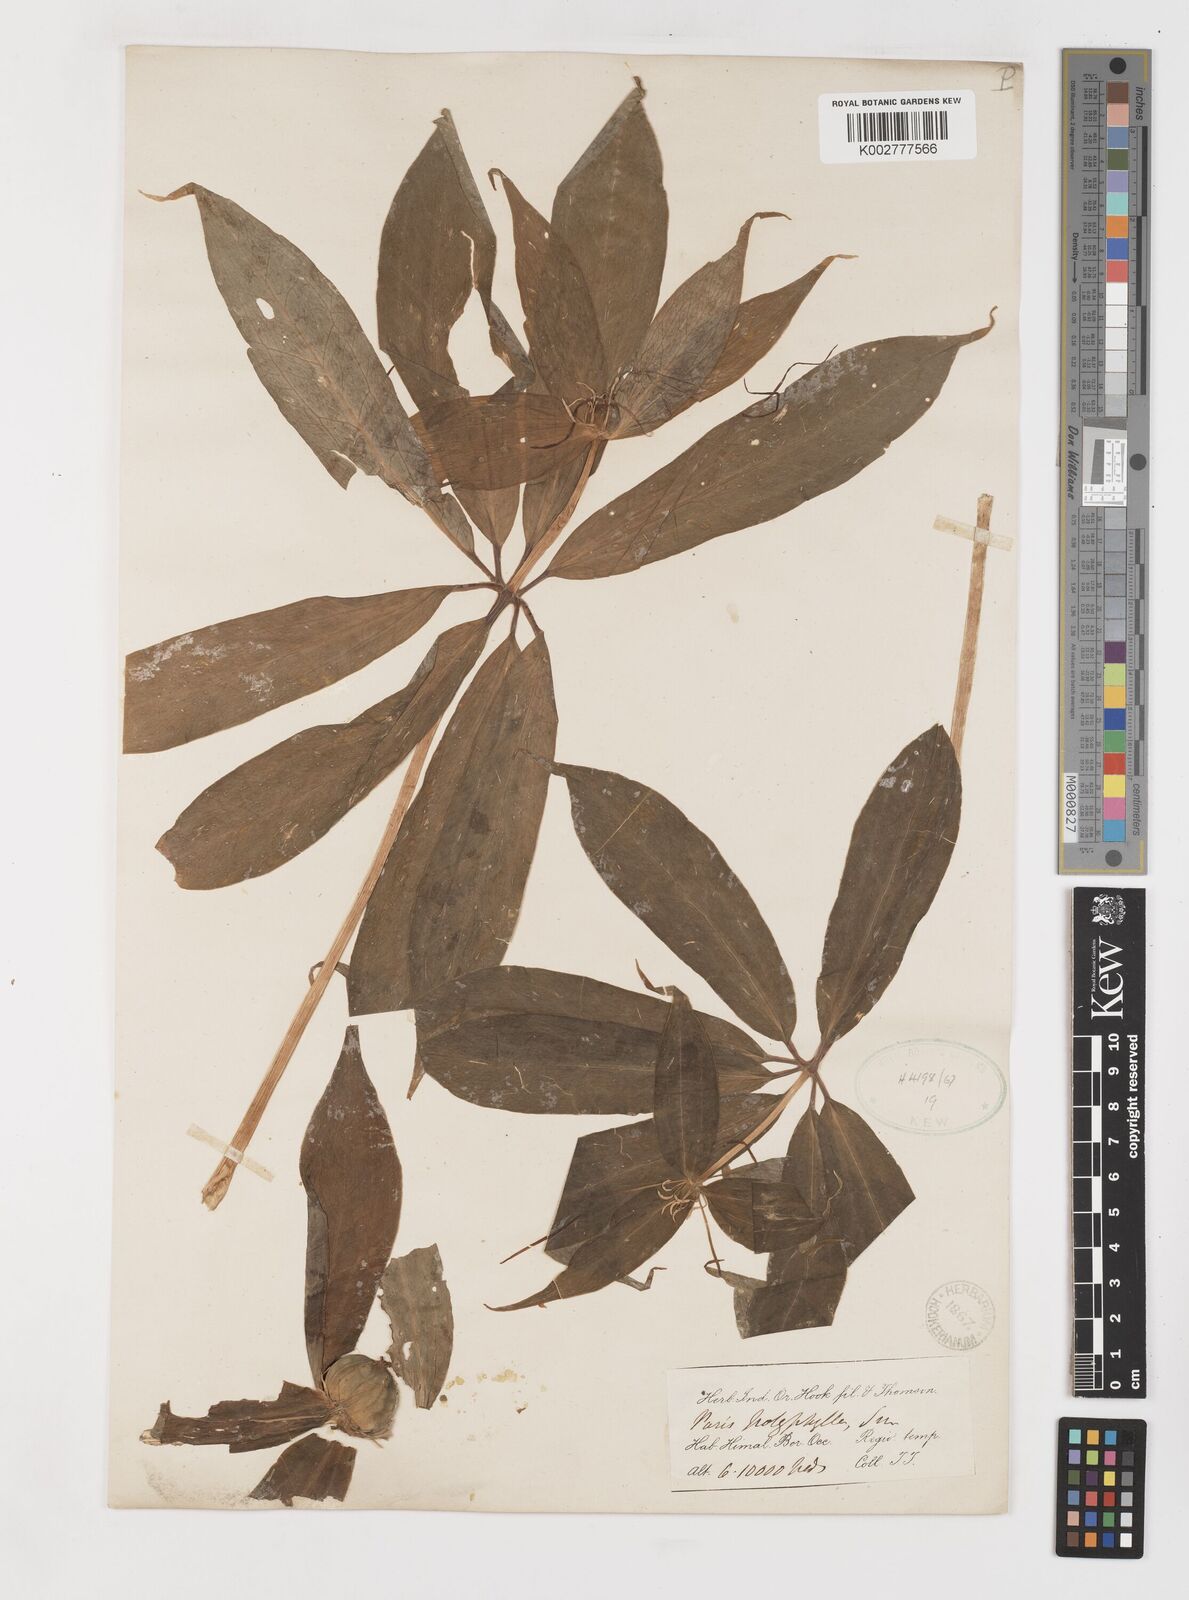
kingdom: Plantae
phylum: Tracheophyta
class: Liliopsida
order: Liliales
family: Melanthiaceae
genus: Paris
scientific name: Paris polyphylla
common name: Love apple
